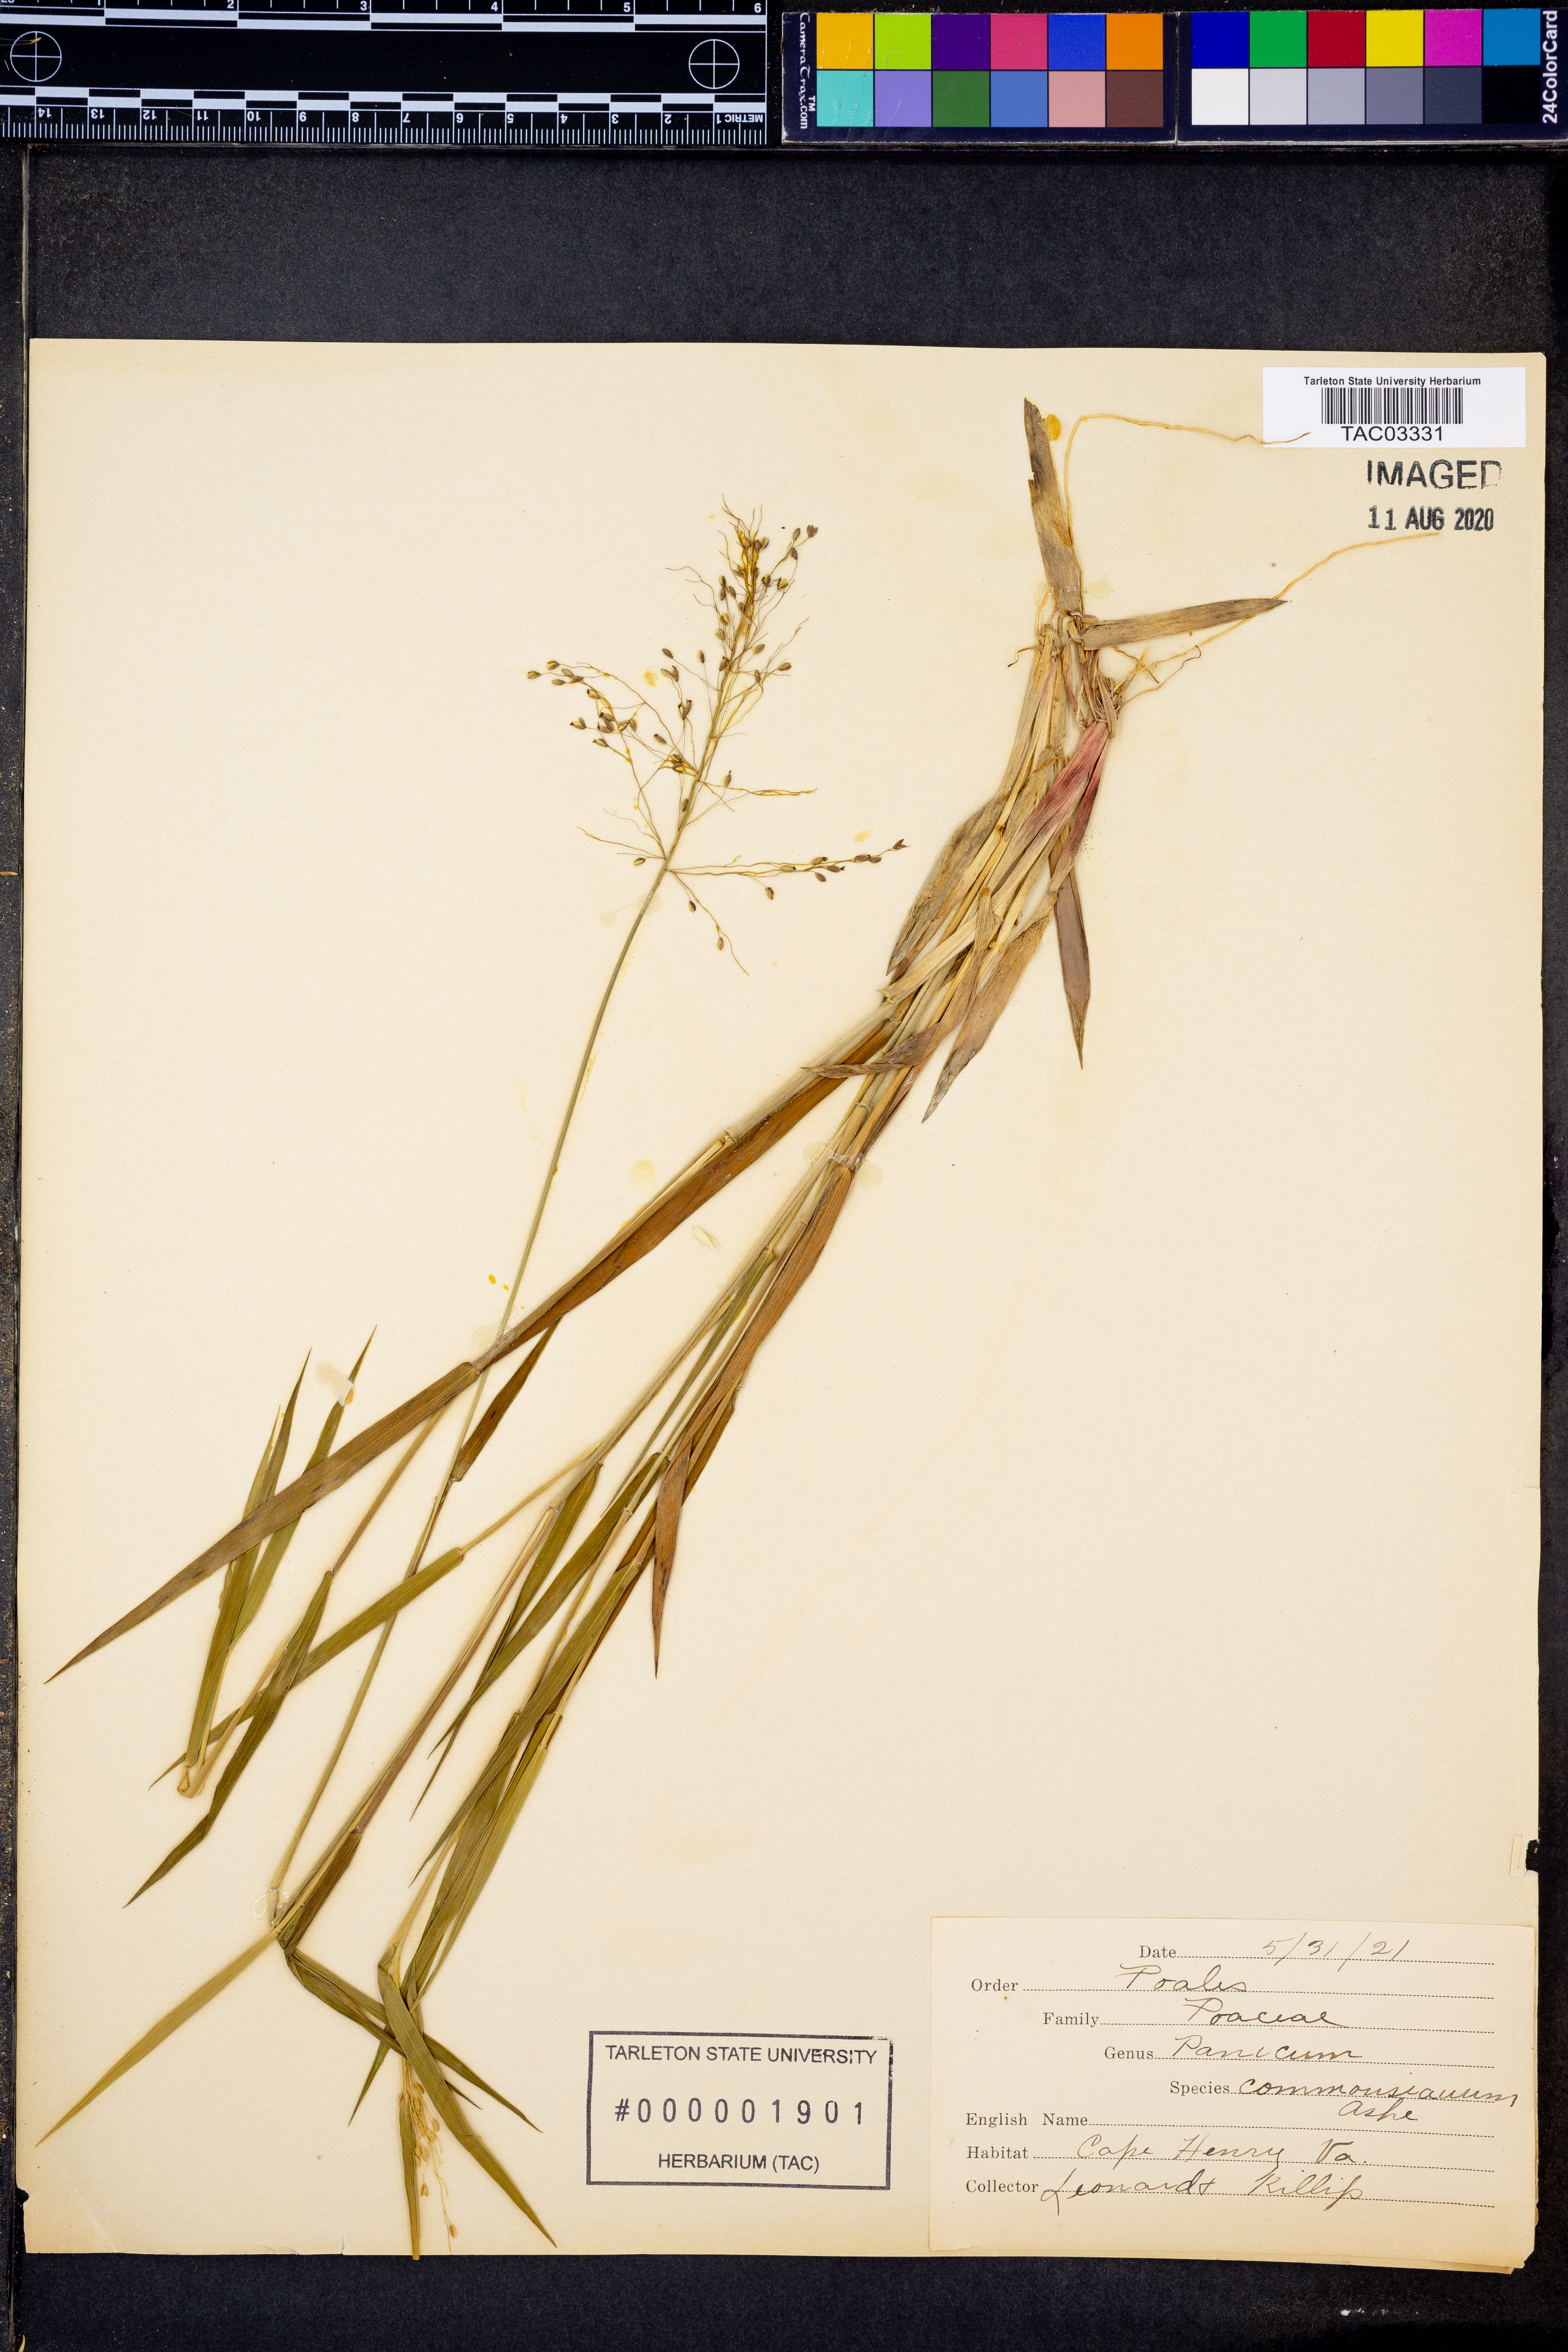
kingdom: Plantae
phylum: Tracheophyta
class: Liliopsida
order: Poales
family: Poaceae
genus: Dichanthelium
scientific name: Dichanthelium commonsianum
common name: Commons' panicgrass
